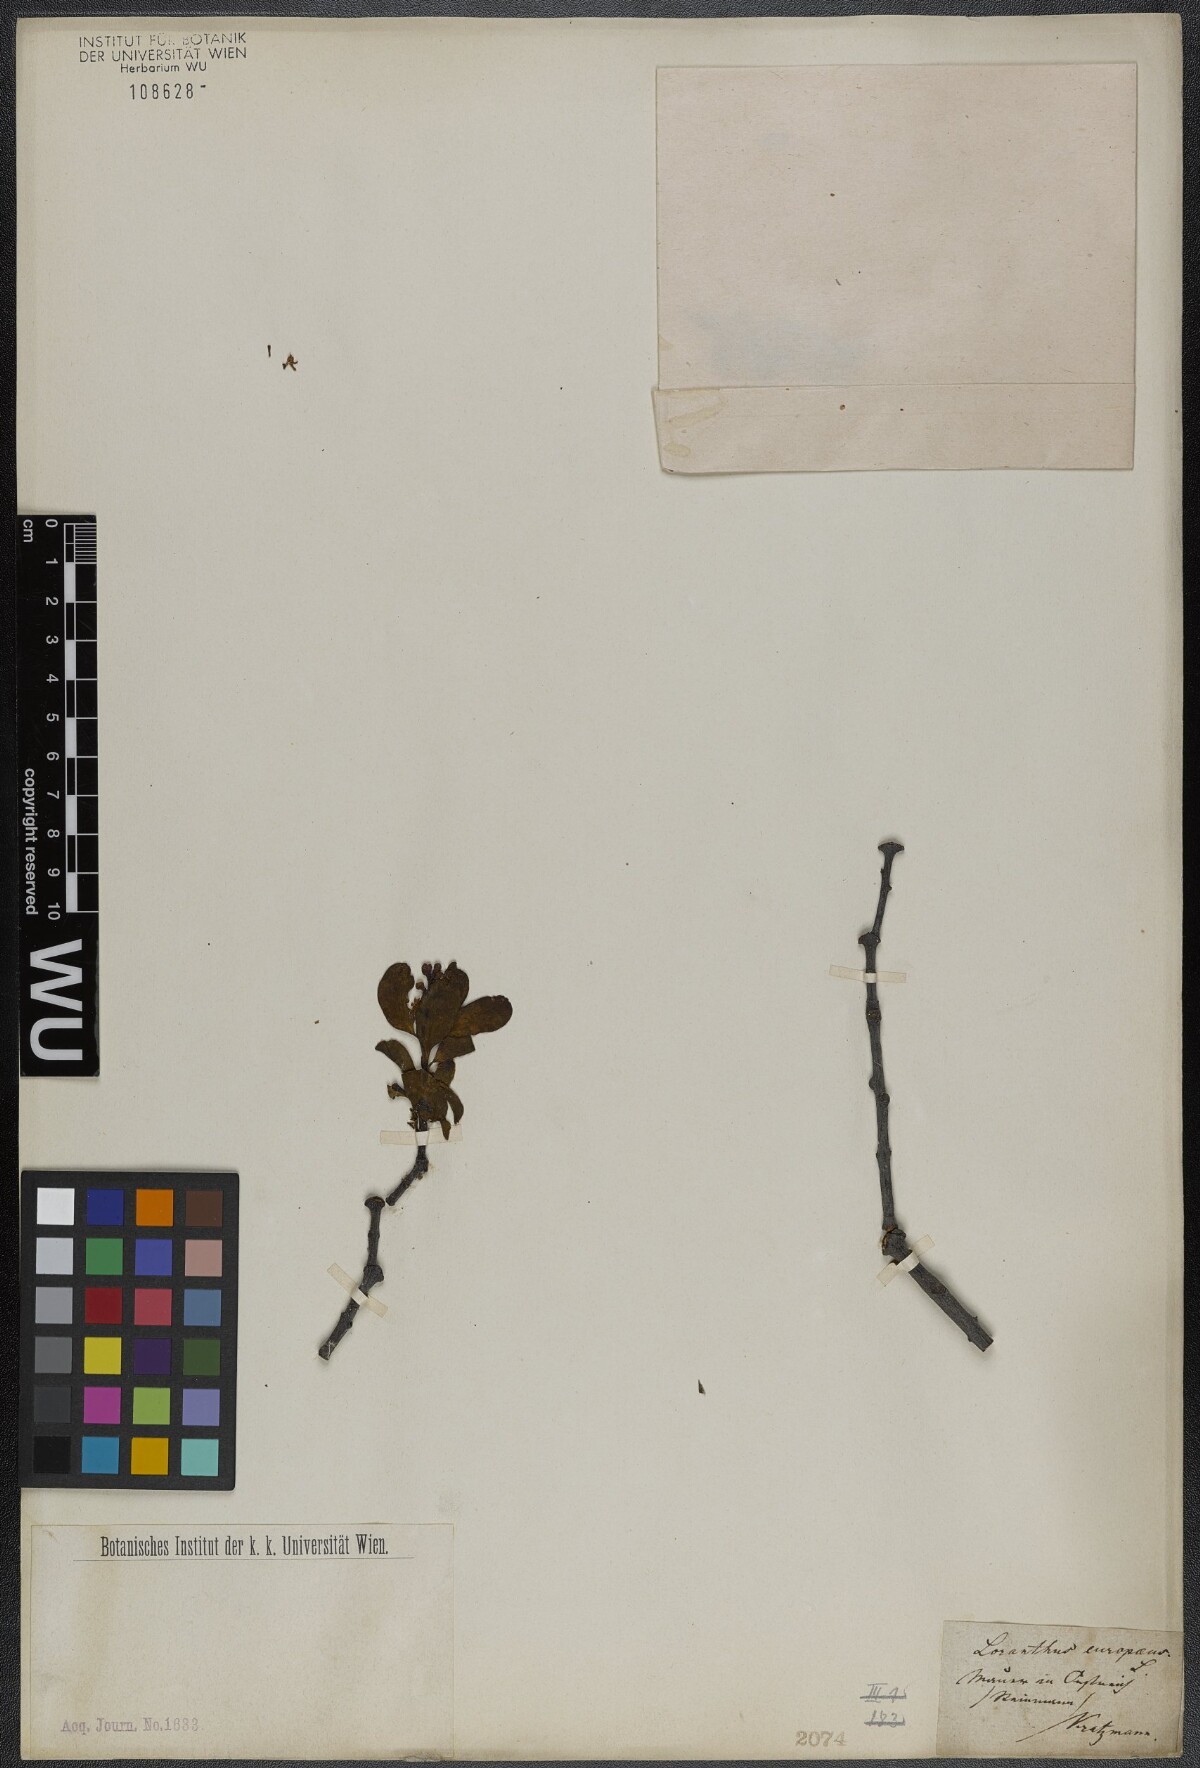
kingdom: Plantae
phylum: Tracheophyta
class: Magnoliopsida
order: Santalales
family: Loranthaceae
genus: Loranthus
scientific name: Loranthus europaeus
